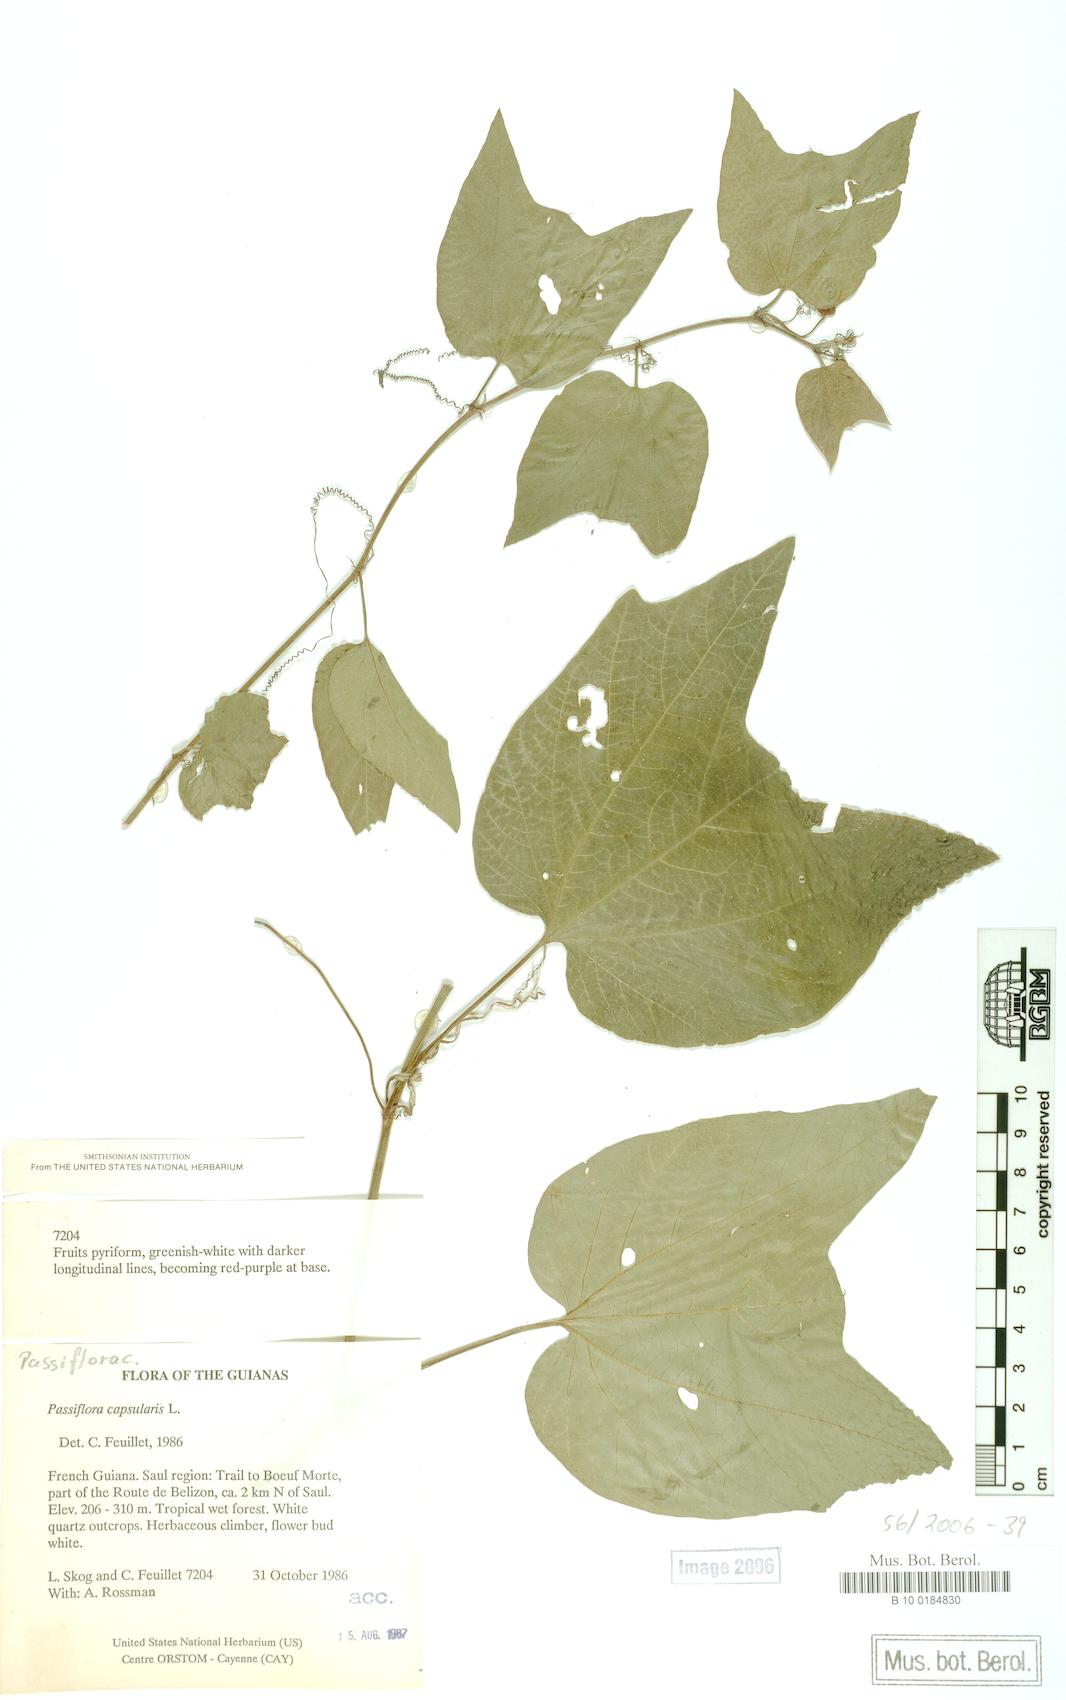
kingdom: Plantae
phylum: Tracheophyta
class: Magnoliopsida
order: Malpighiales
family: Passifloraceae
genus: Passiflora
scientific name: Passiflora capsularis
